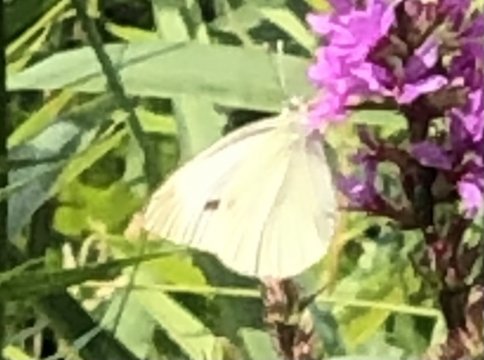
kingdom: Animalia
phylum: Arthropoda
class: Insecta
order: Lepidoptera
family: Pieridae
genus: Pieris
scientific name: Pieris rapae
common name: Cabbage White
